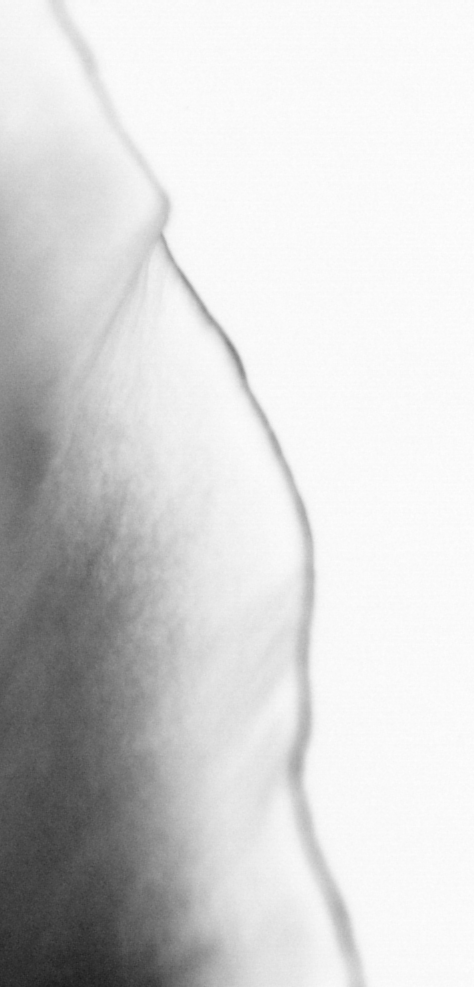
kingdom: Animalia
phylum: Chordata
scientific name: Chordata
